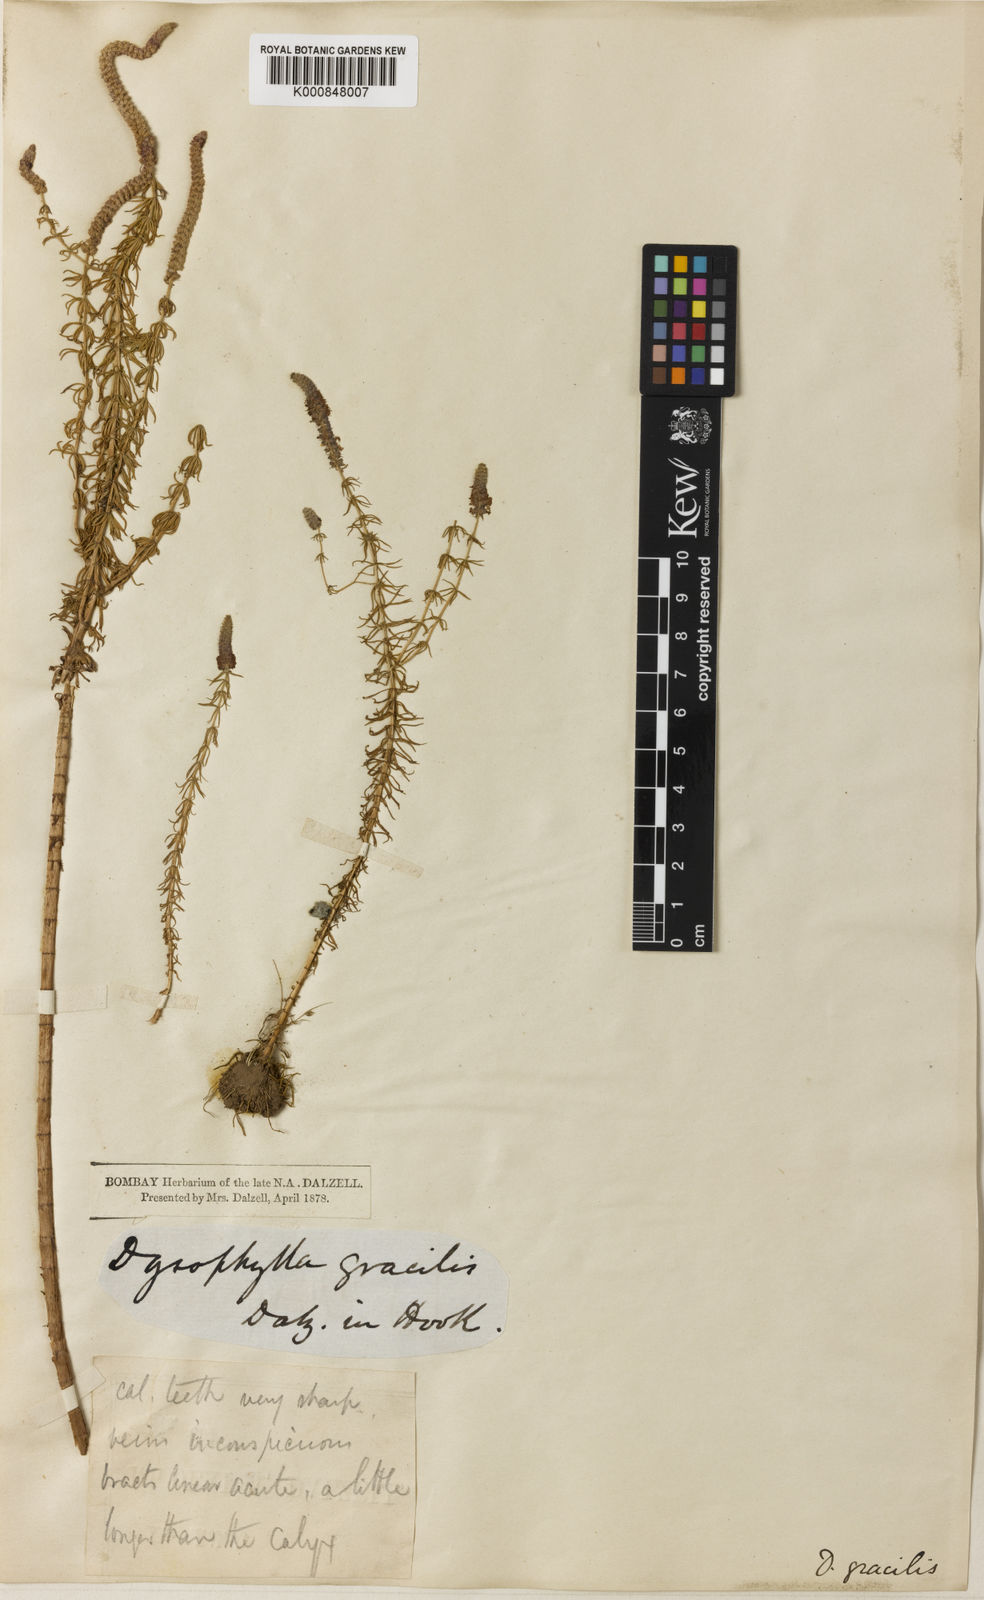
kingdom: Plantae
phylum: Tracheophyta
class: Magnoliopsida
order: Lamiales
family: Lamiaceae
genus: Pogostemon
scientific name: Pogostemon erectus
